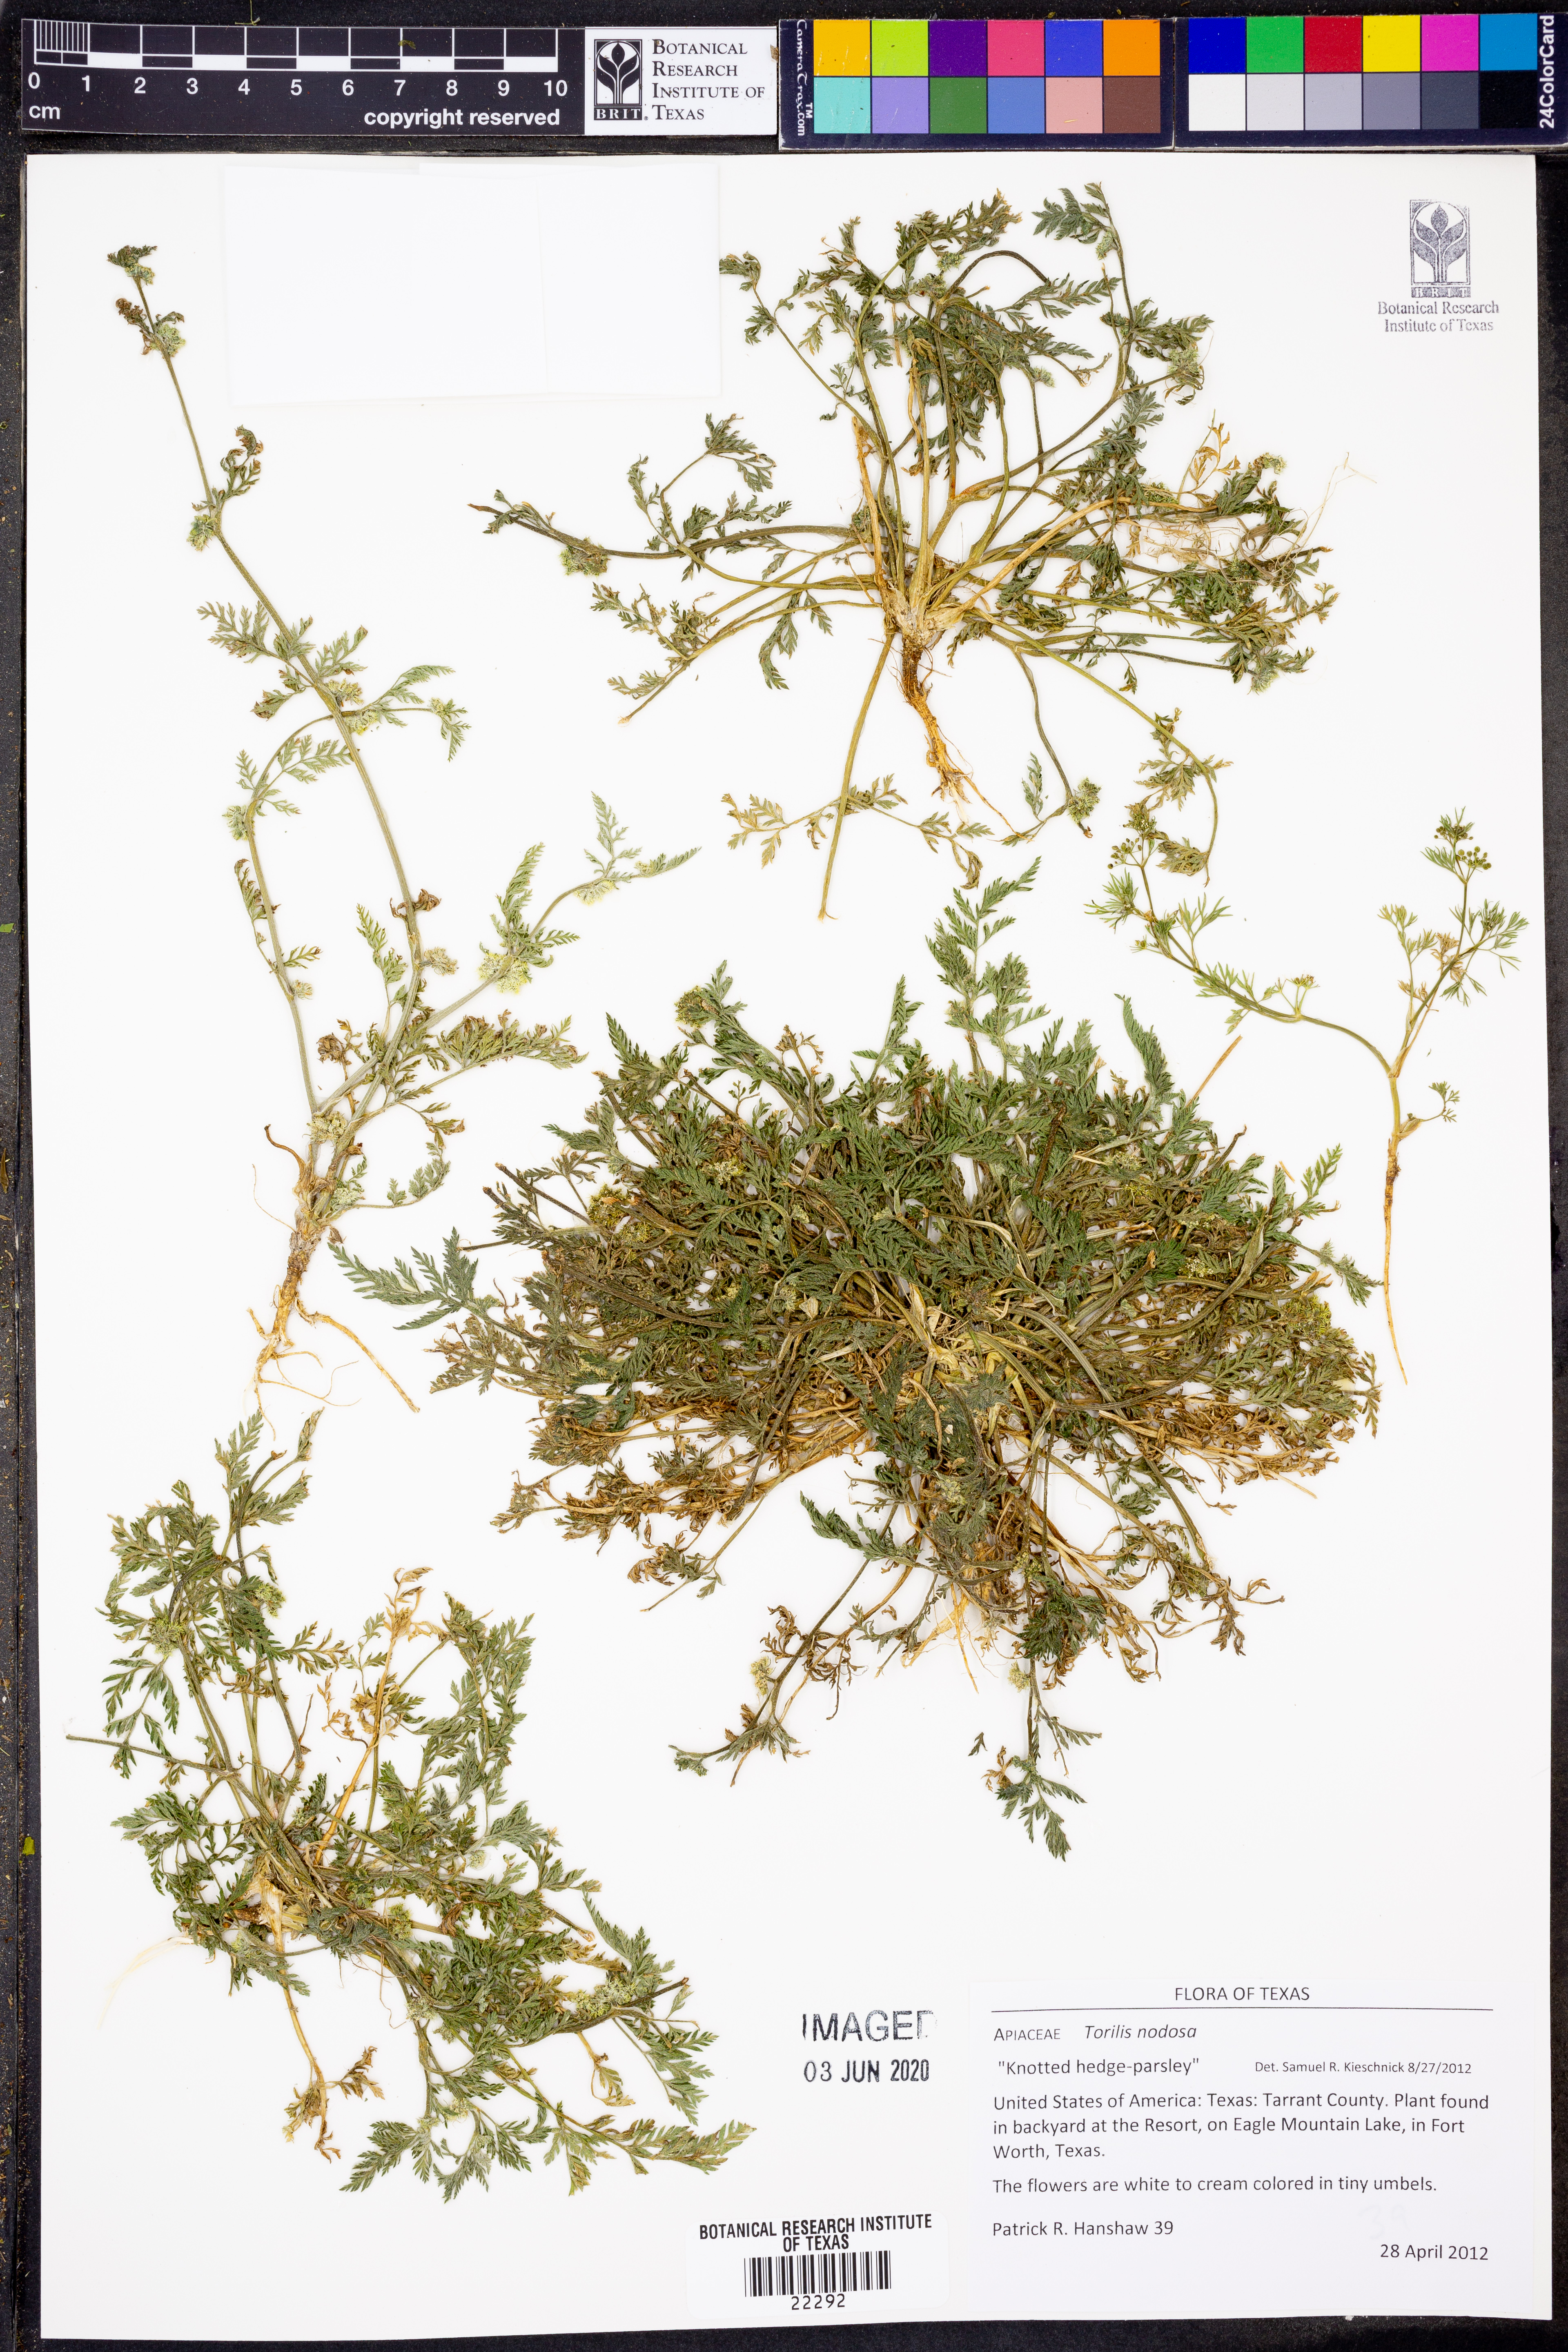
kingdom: Plantae
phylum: Tracheophyta
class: Magnoliopsida
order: Apiales
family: Apiaceae
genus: Torilis
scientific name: Torilis nodosa
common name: Knotted hedge-parsley
